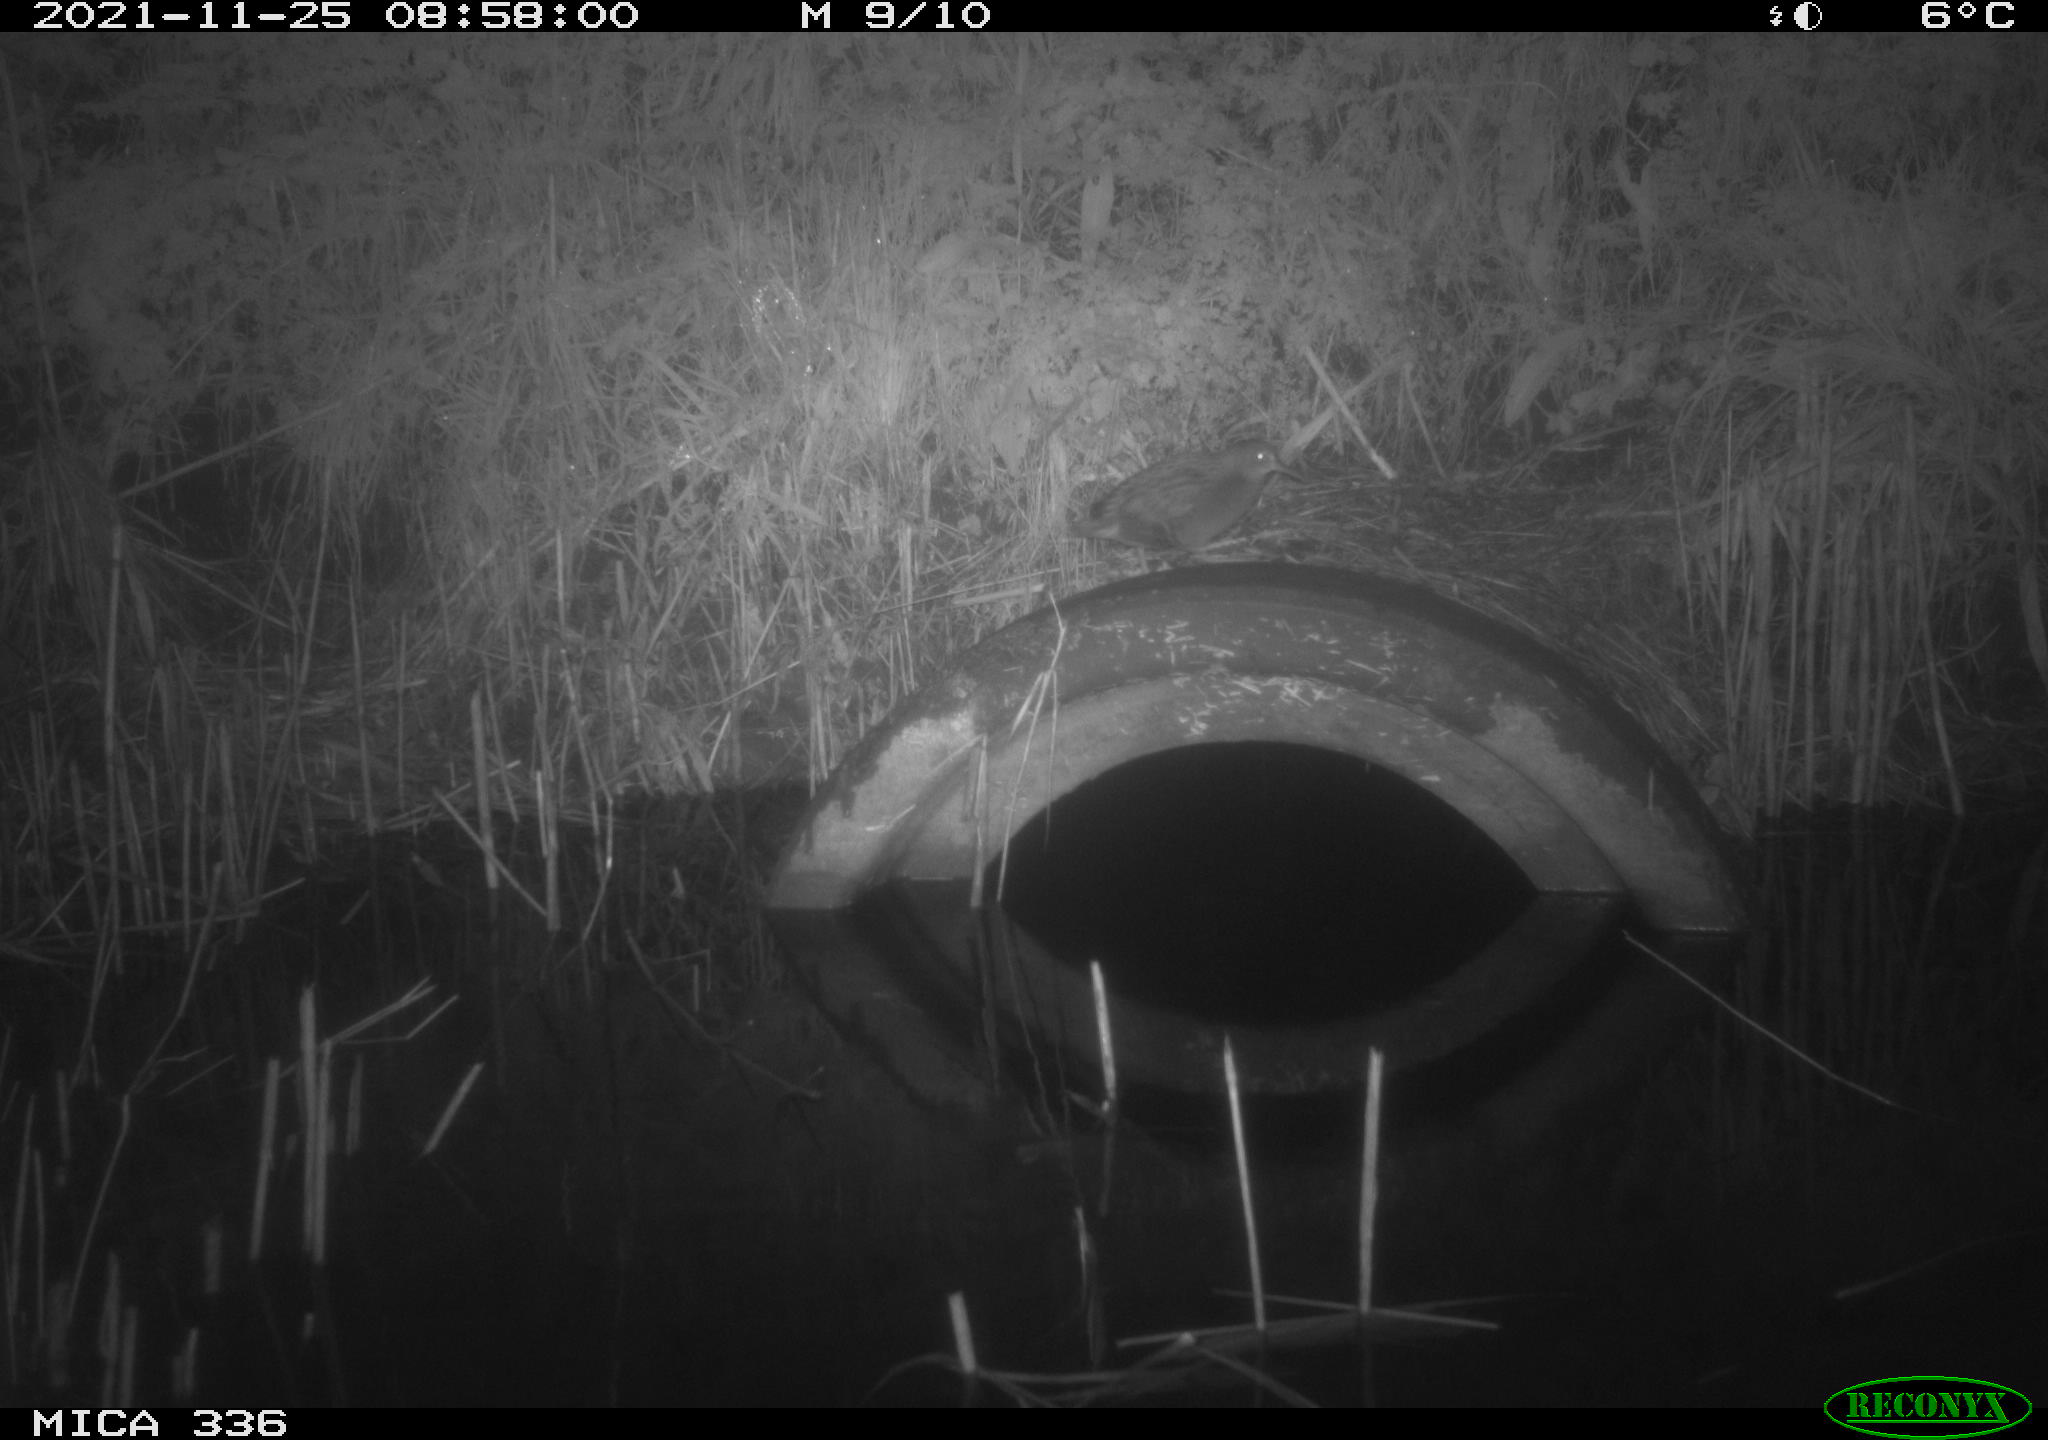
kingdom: Animalia
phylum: Chordata
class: Aves
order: Gruiformes
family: Rallidae
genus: Gallinula
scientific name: Gallinula chloropus
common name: Common moorhen
